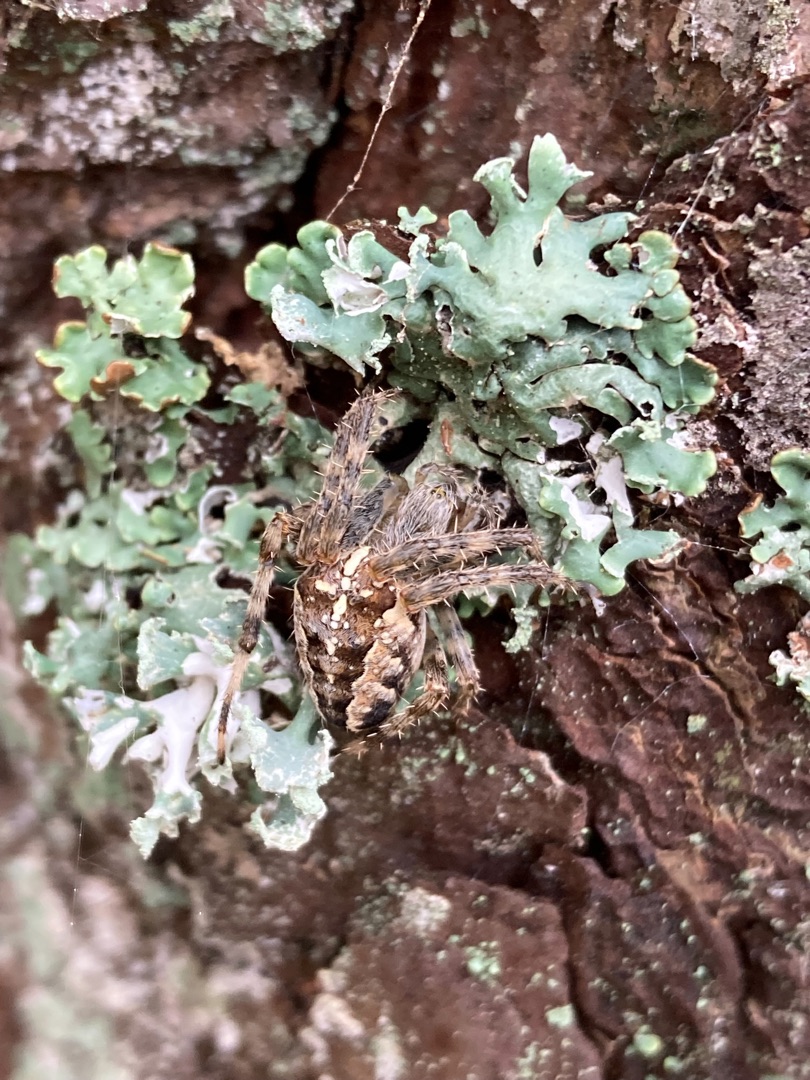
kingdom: Animalia
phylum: Arthropoda
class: Arachnida
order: Araneae
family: Araneidae
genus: Araneus
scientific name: Araneus diadematus
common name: Korsedderkop
